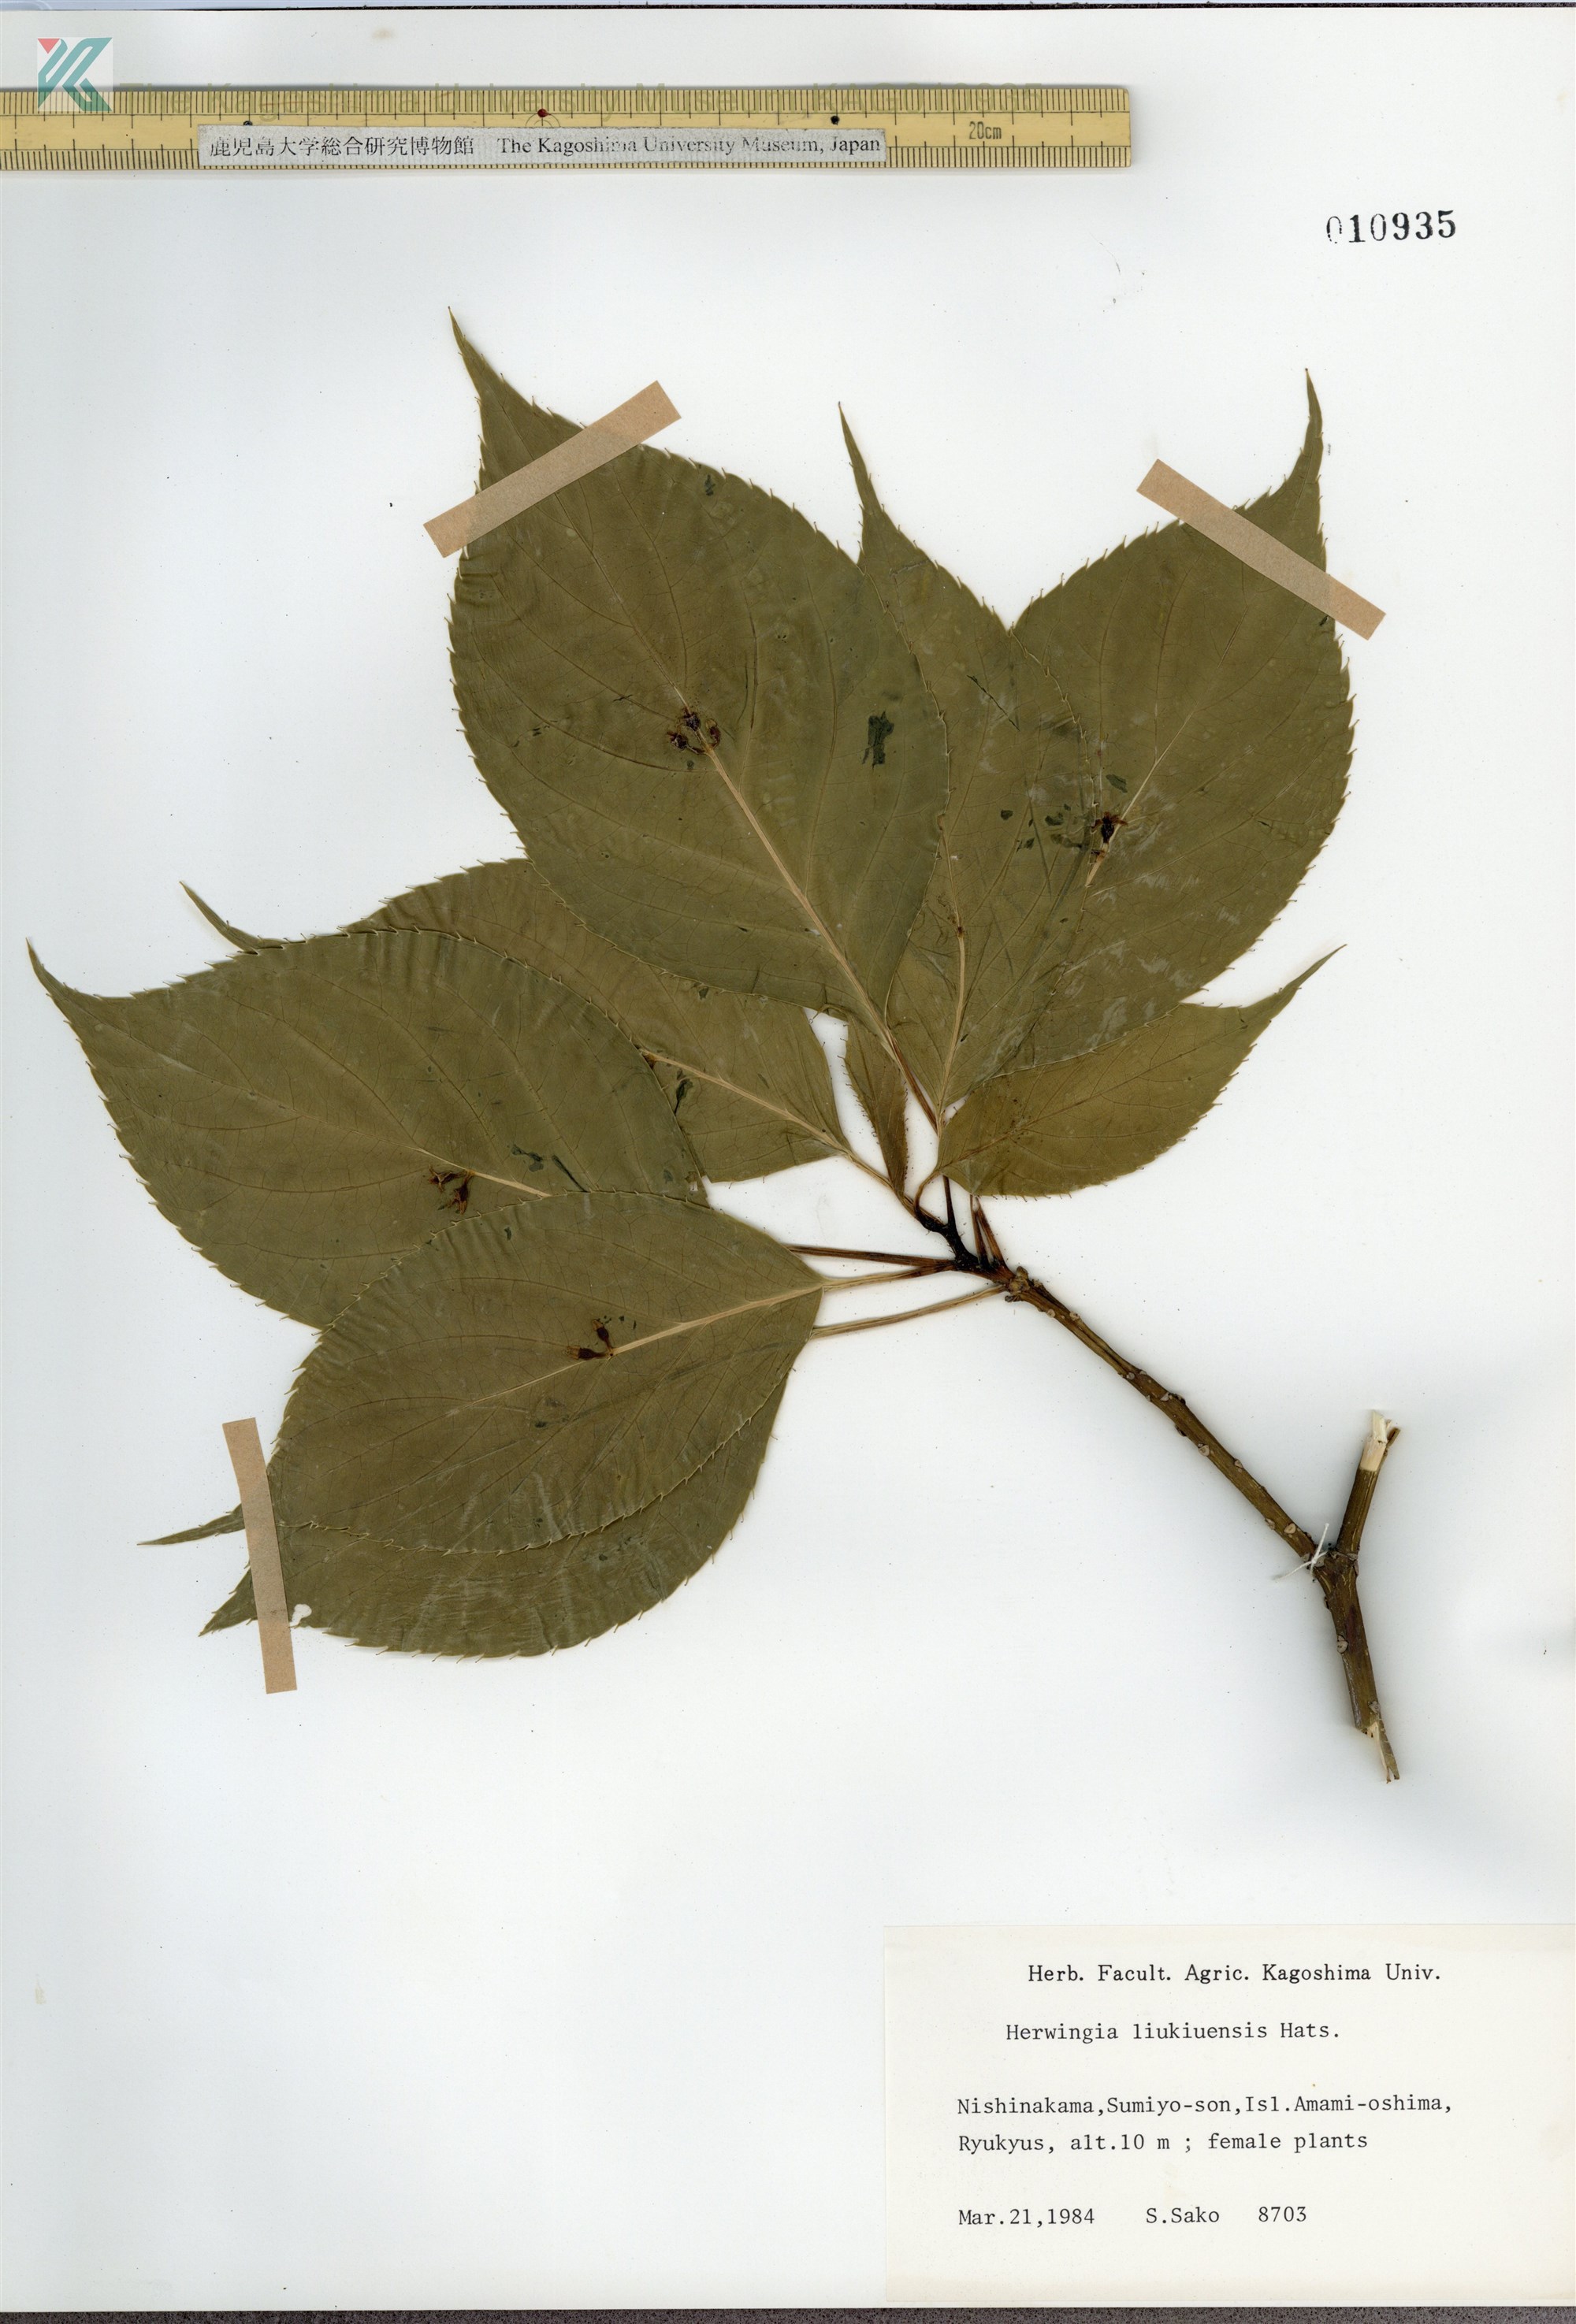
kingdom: Plantae
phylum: Tracheophyta
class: Magnoliopsida
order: Aquifoliales
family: Helwingiaceae
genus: Helwingia
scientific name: Helwingia japonica
